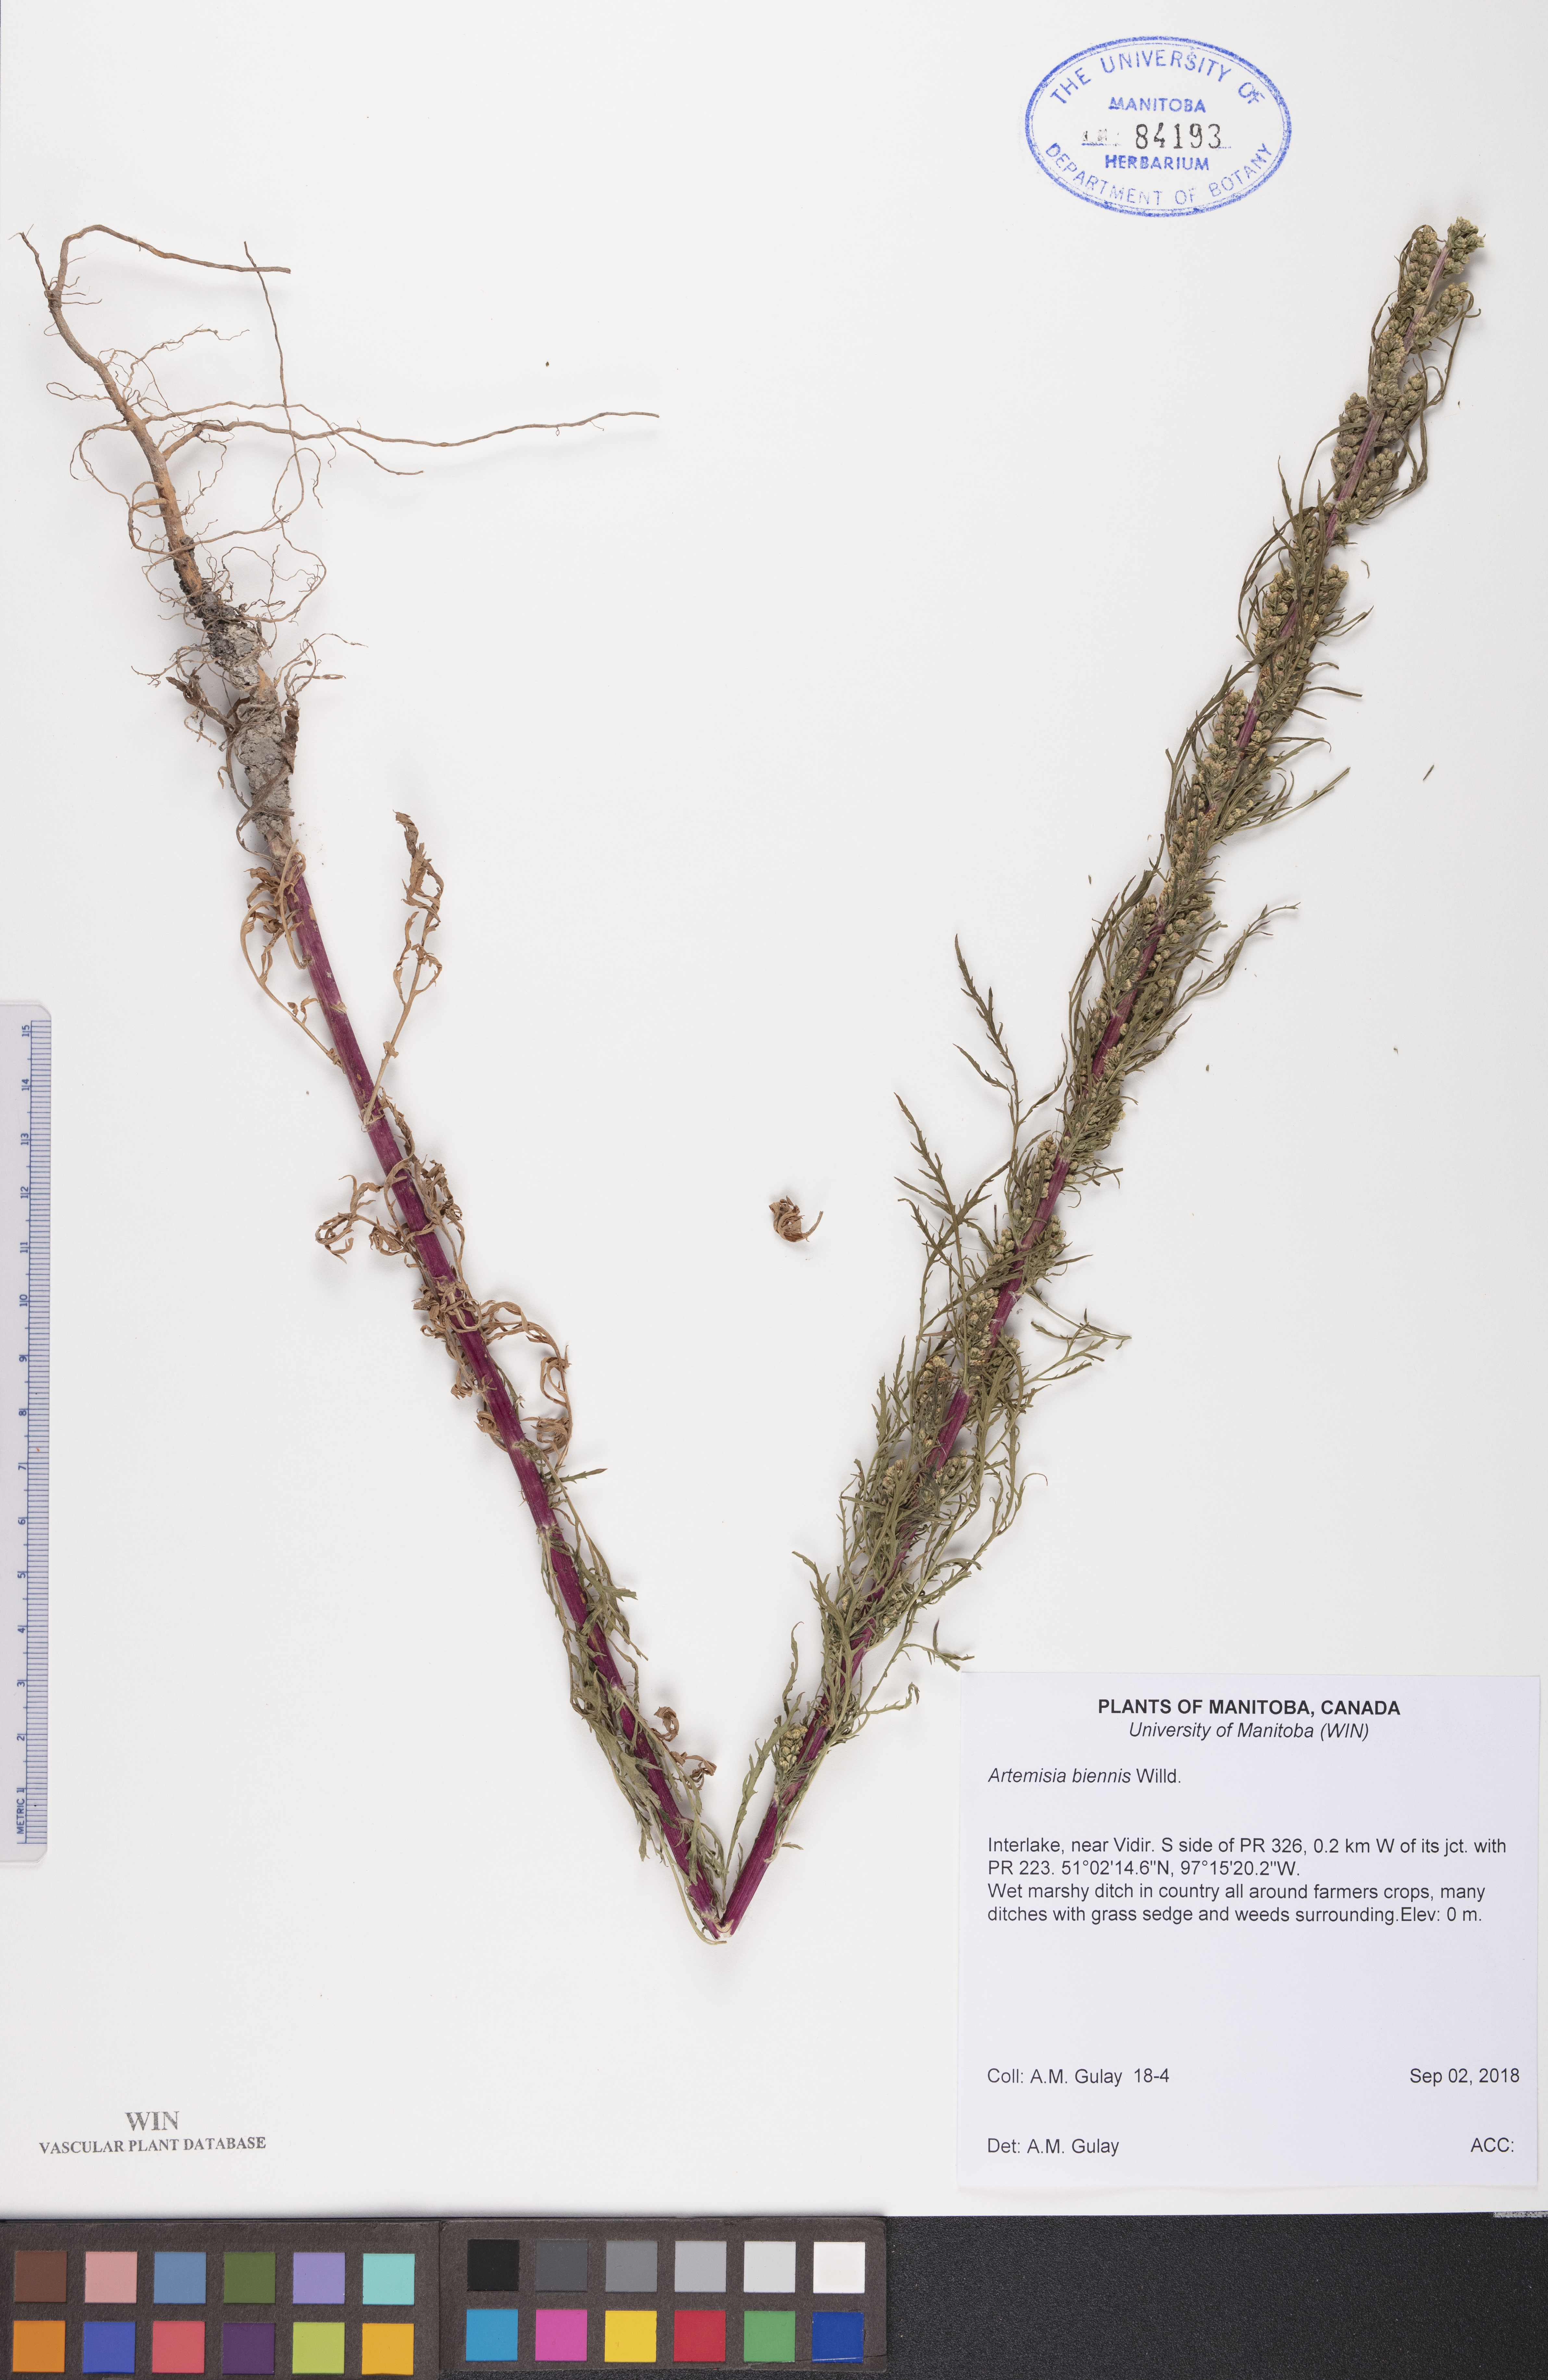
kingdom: Plantae
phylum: Tracheophyta
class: Magnoliopsida
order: Asterales
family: Asteraceae
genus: Artemisia
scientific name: Artemisia biennis
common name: Biennial wormwood
